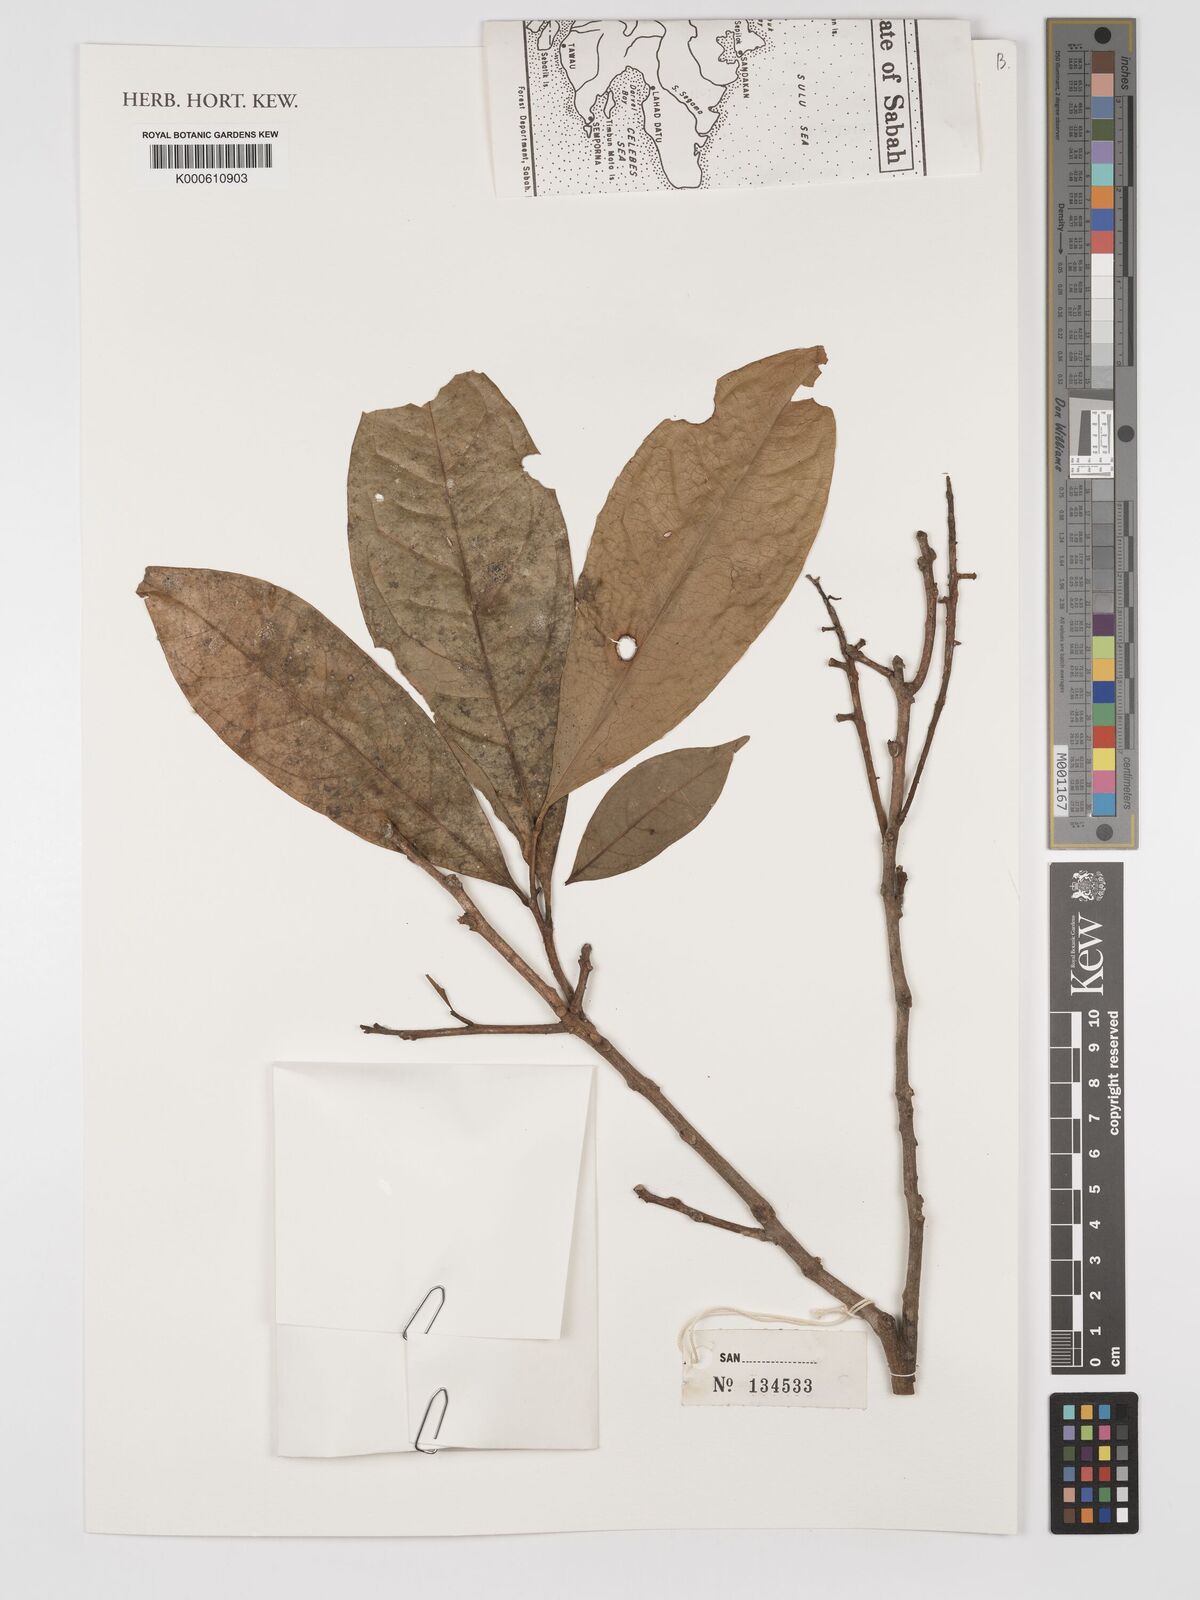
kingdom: Plantae
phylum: Tracheophyta
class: Magnoliopsida
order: Proteales
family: Proteaceae
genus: Helicia
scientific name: Helicia
